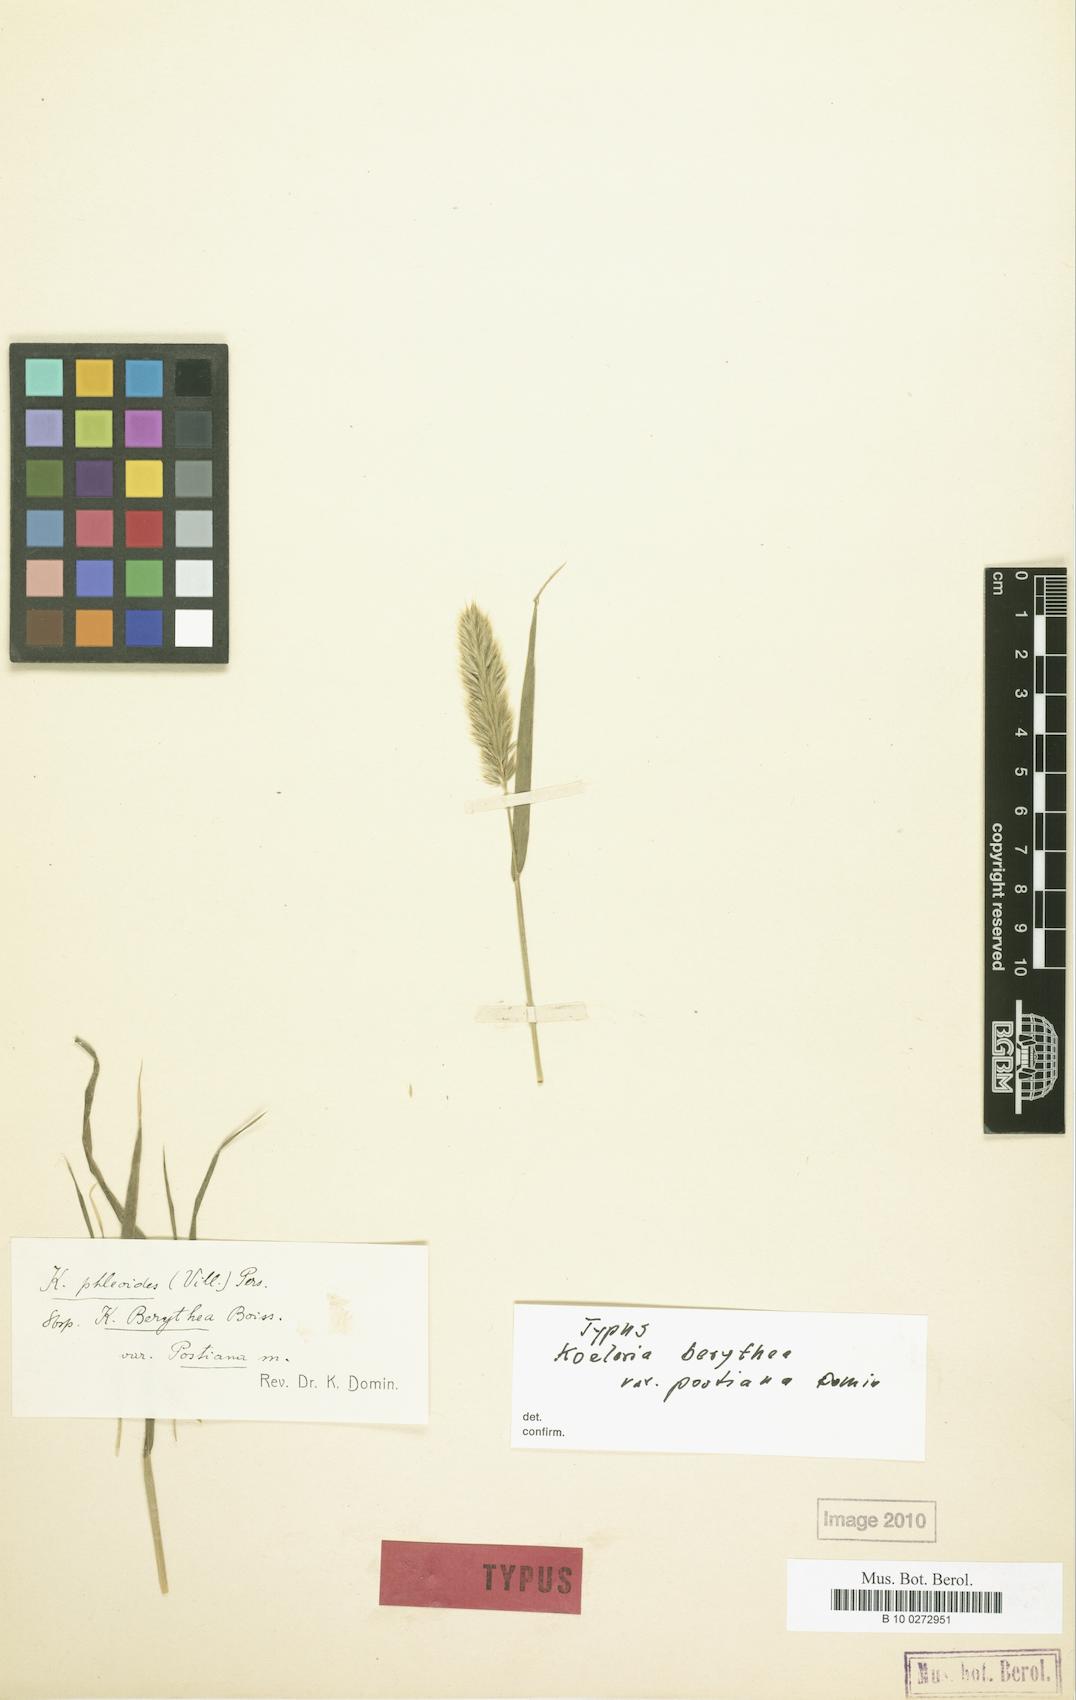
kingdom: Plantae
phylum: Tracheophyta
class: Liliopsida
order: Poales
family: Poaceae
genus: Rostraria
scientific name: Rostraria smyrnaea
